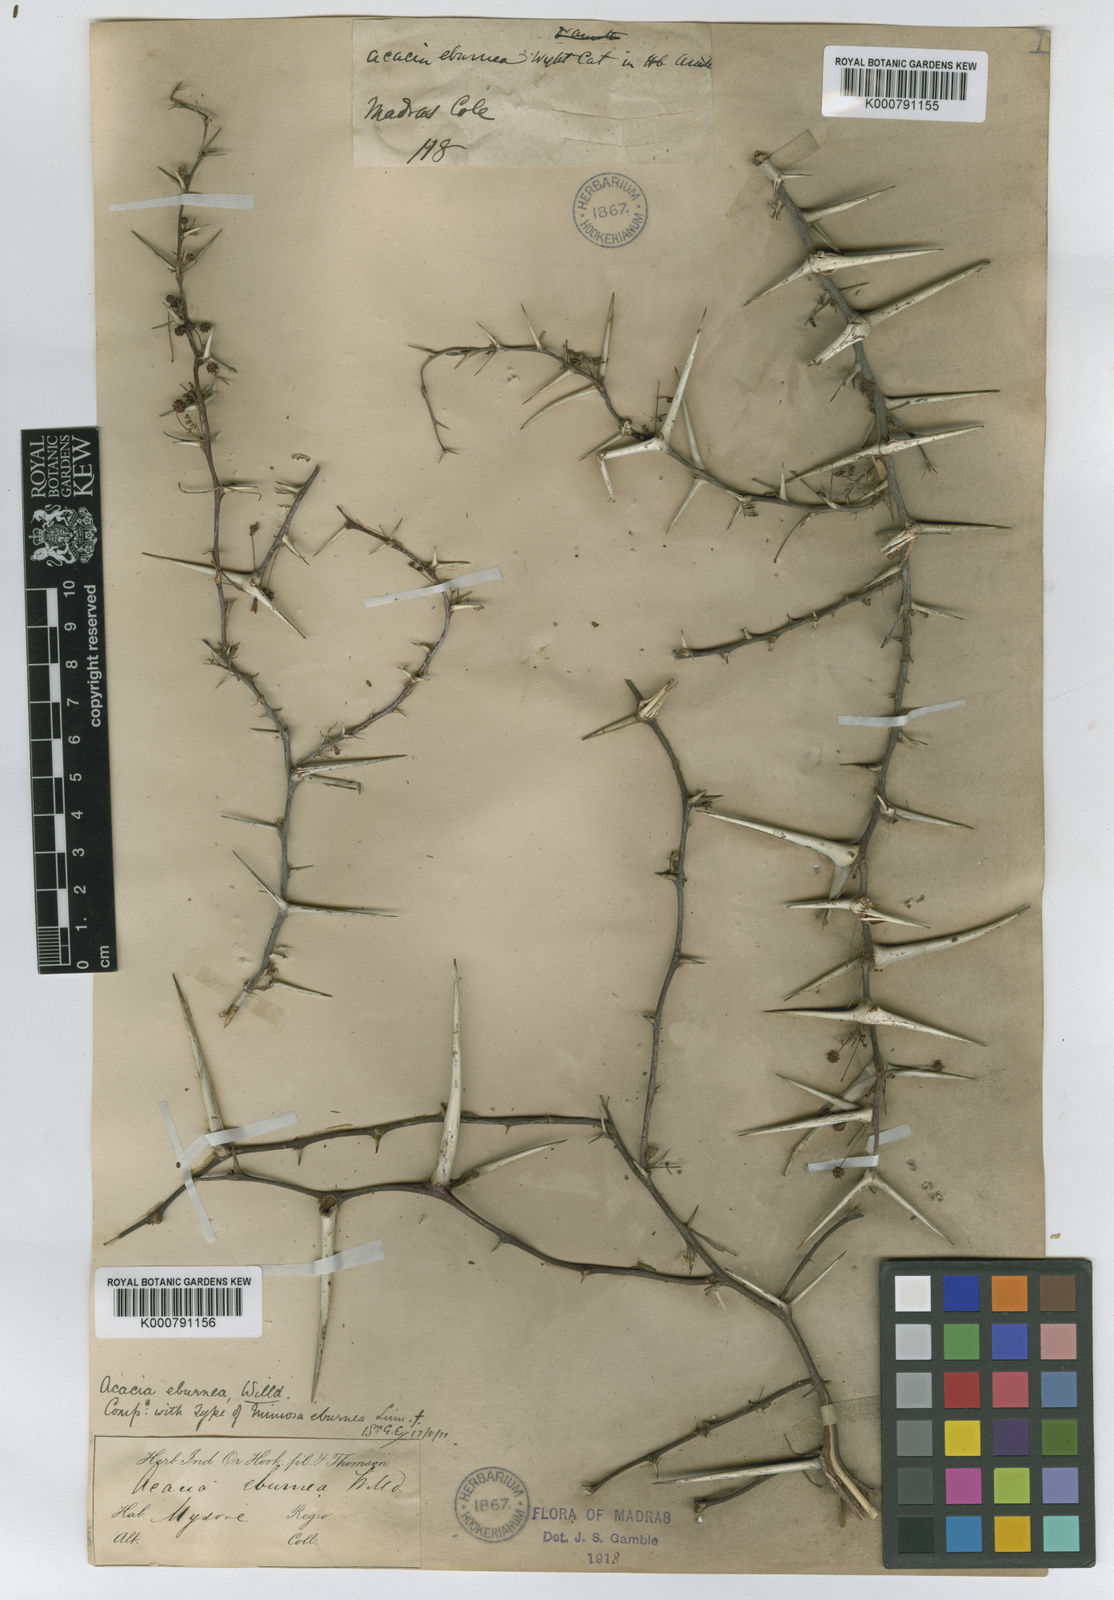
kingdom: Plantae
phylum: Tracheophyta
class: Magnoliopsida
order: Fabales
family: Fabaceae
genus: Vachellia
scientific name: Vachellia eburnea
